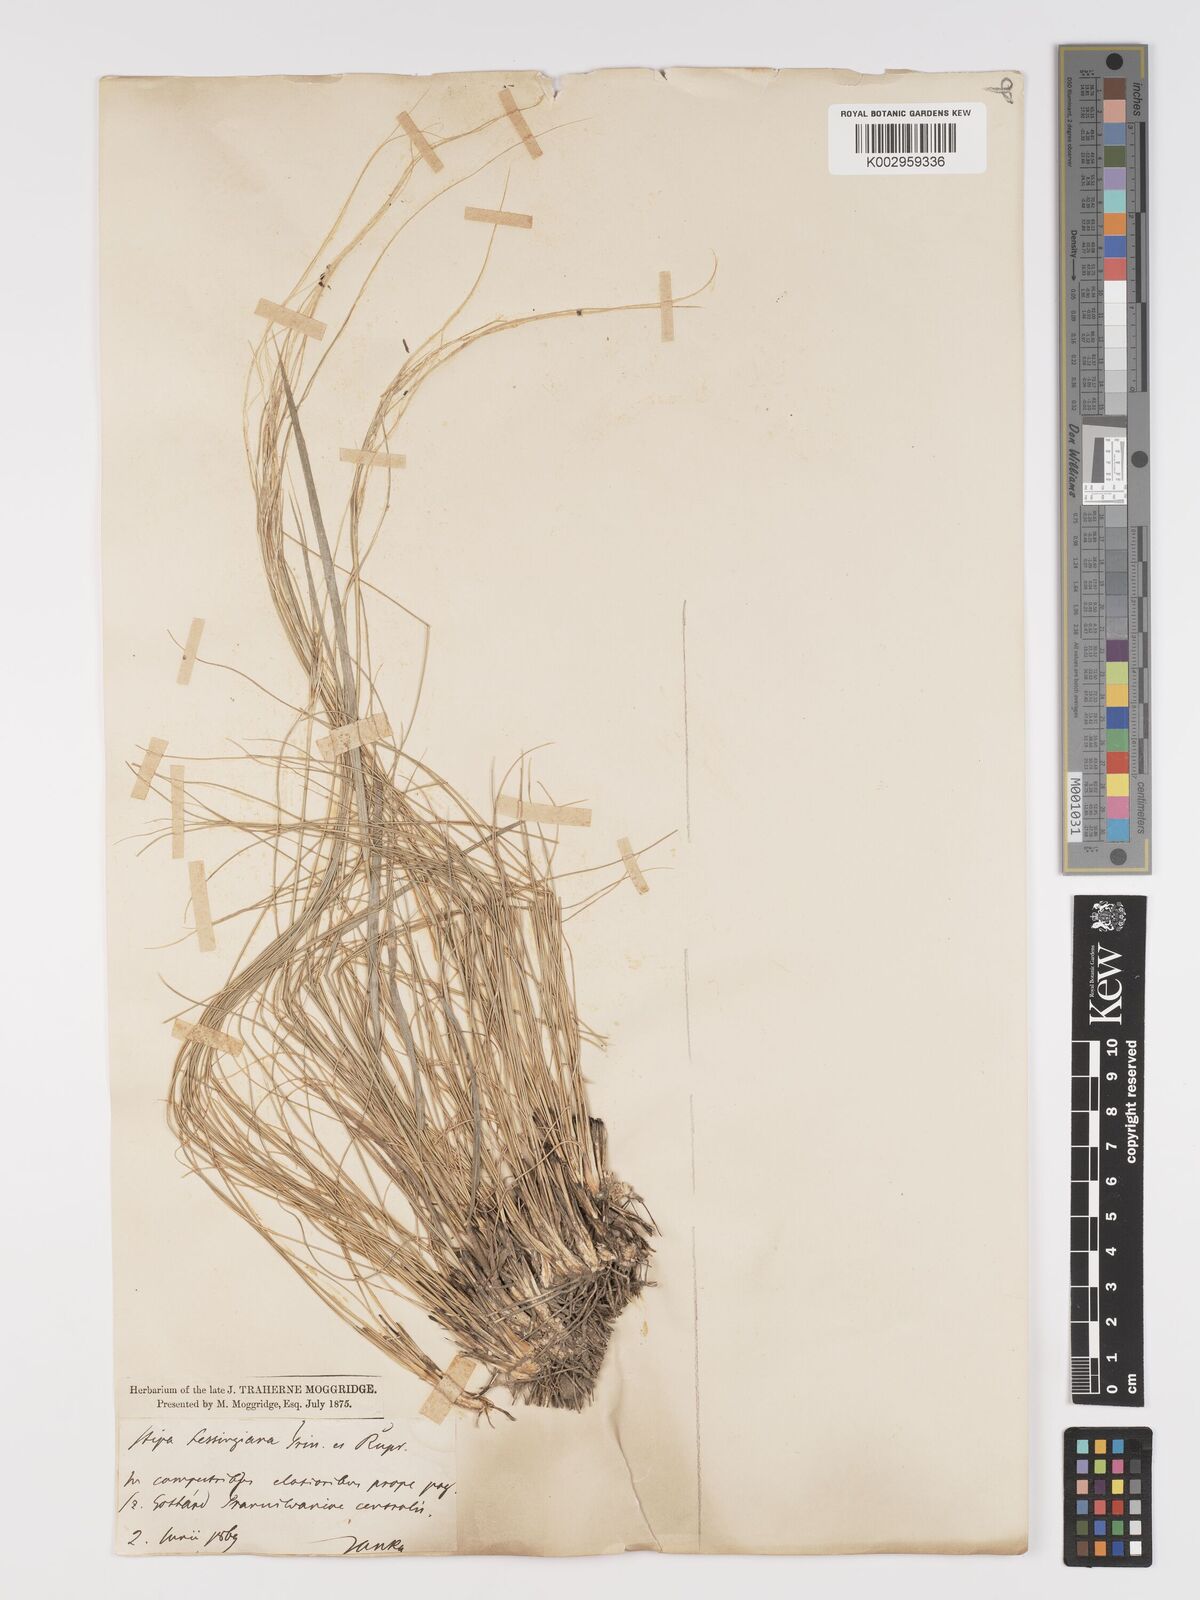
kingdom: Plantae
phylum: Tracheophyta
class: Liliopsida
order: Poales
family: Poaceae
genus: Stipa
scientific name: Stipa lessingiana
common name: Needle grass
